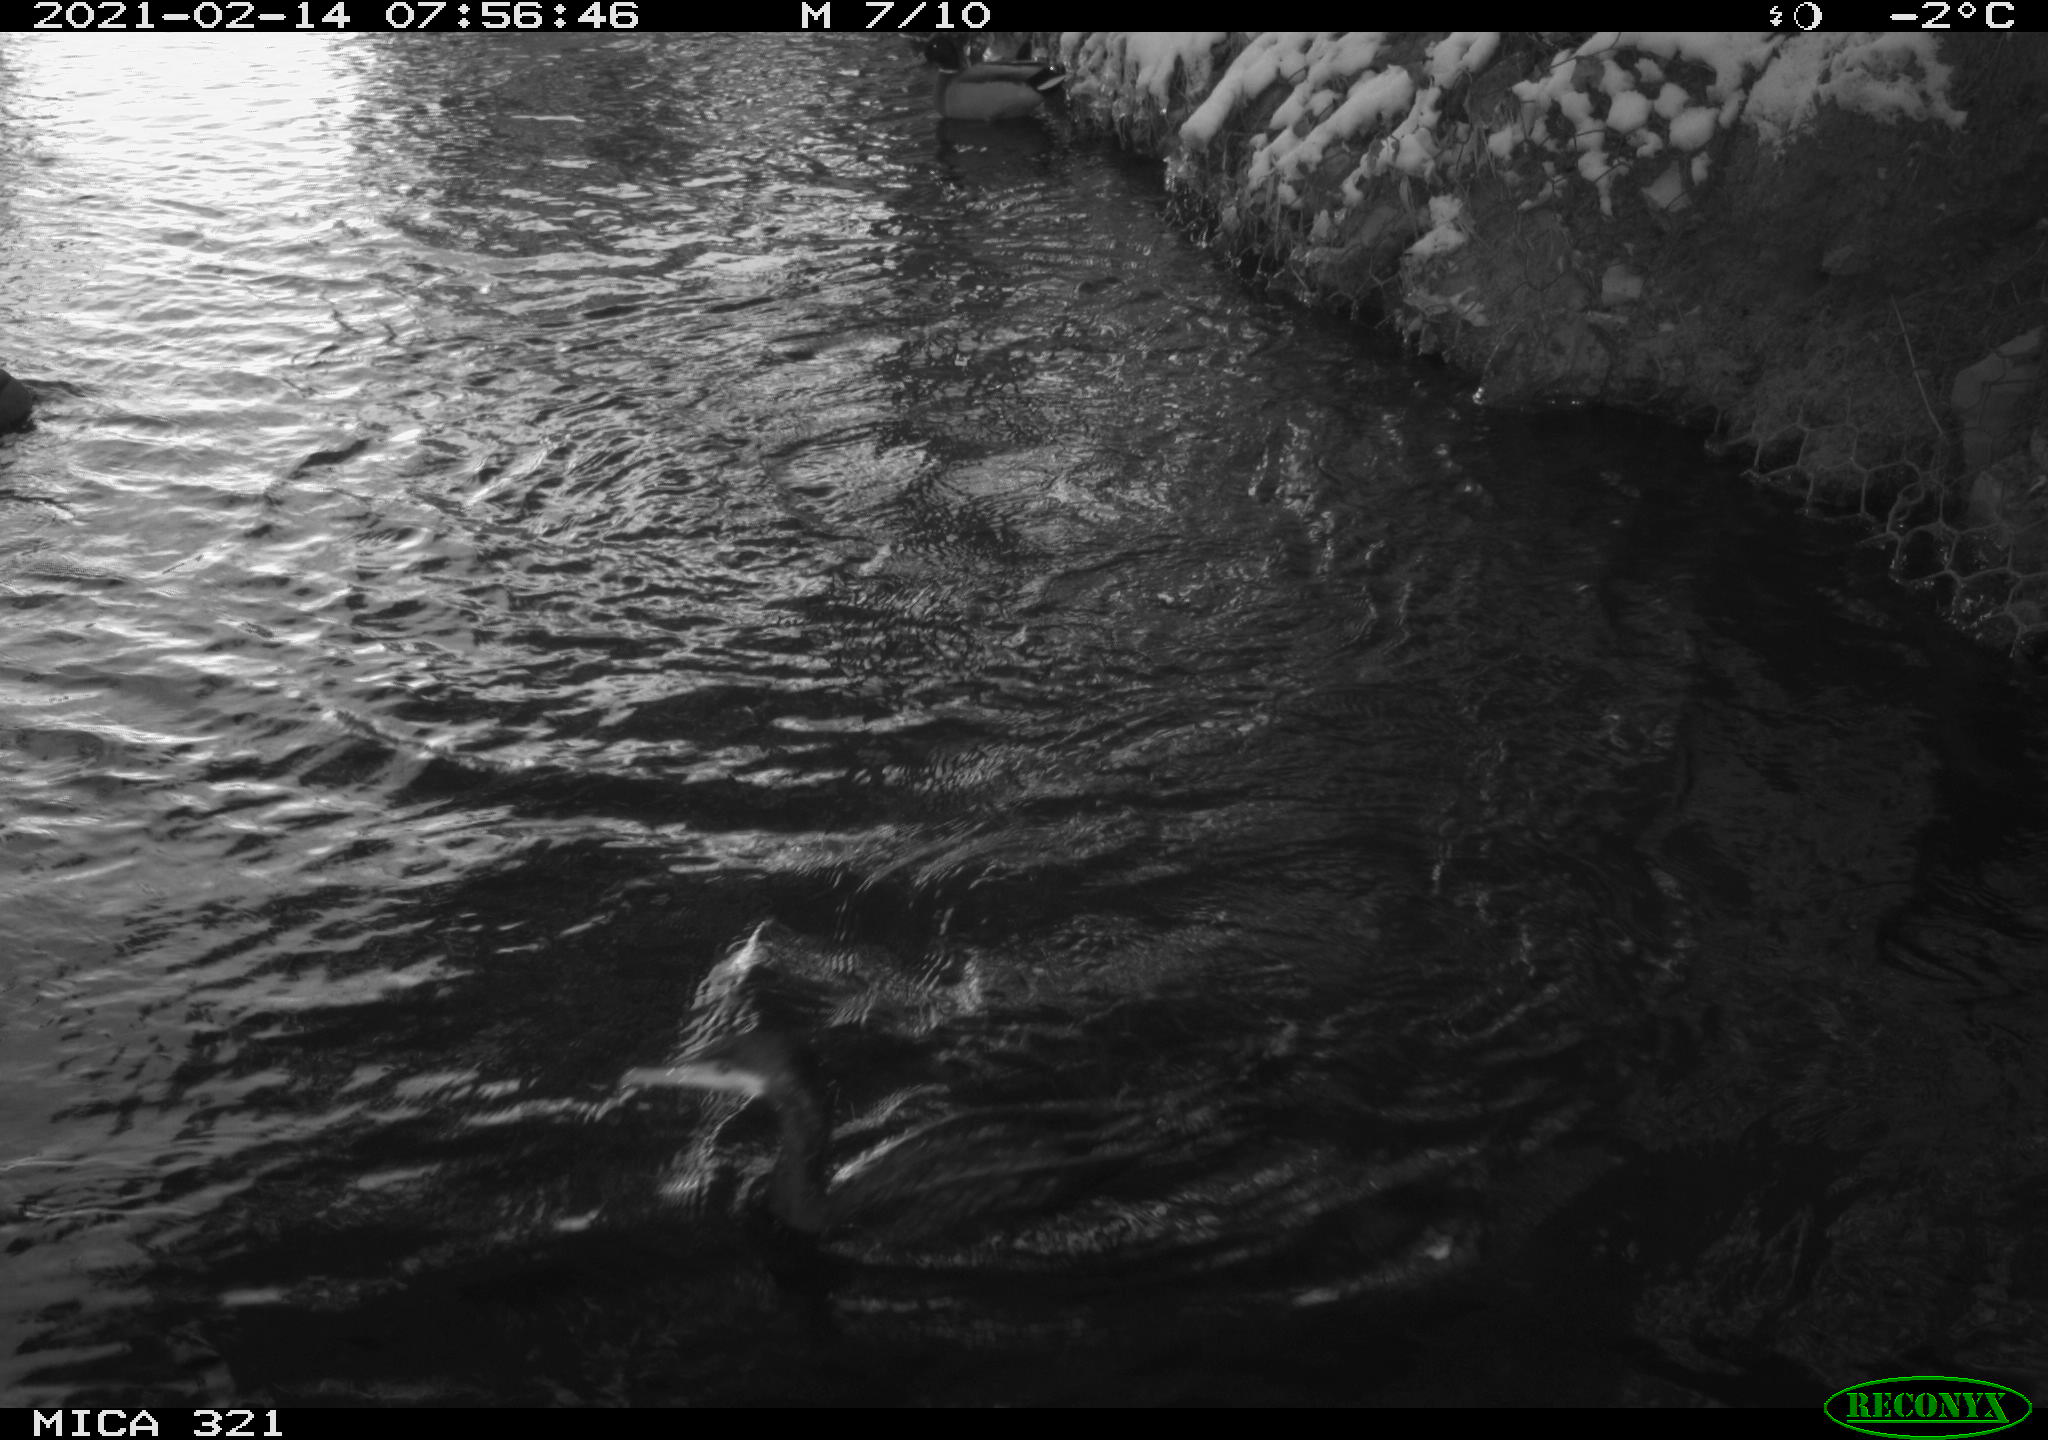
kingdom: Animalia
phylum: Chordata
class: Aves
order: Anseriformes
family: Anatidae
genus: Anas
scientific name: Anas platyrhynchos
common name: Mallard
